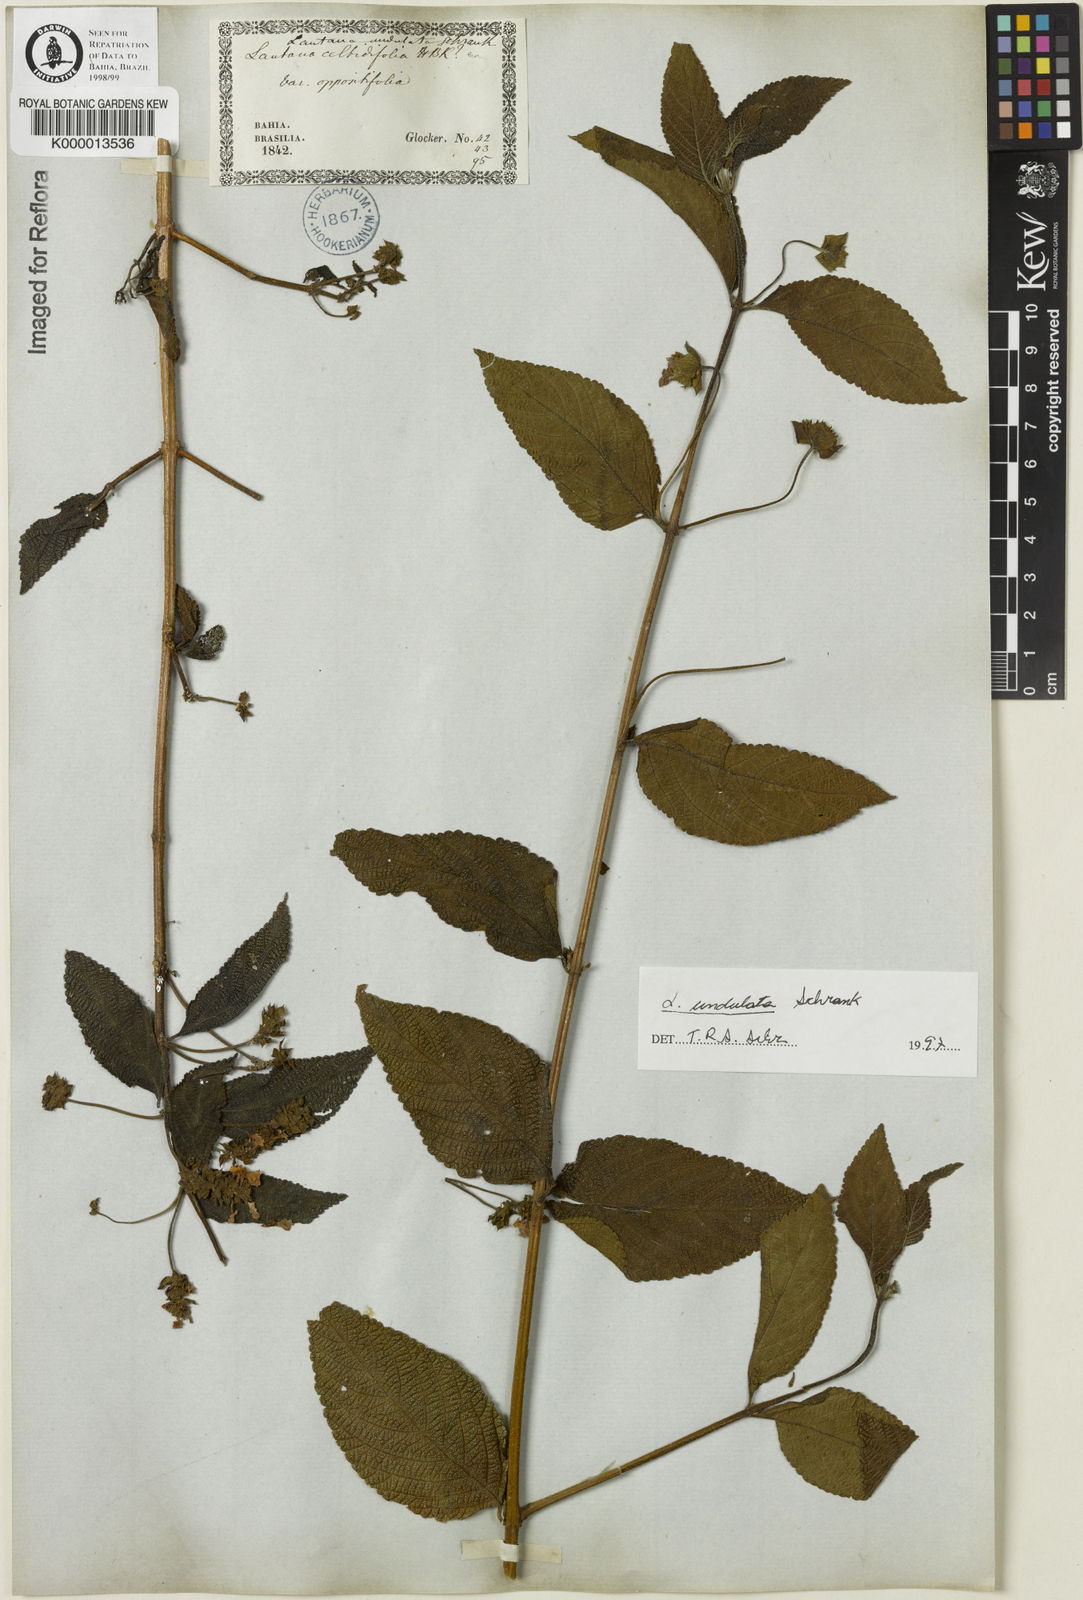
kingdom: Plantae
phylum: Tracheophyta
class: Magnoliopsida
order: Lamiales
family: Verbenaceae
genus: Lantana
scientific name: Lantana undulata
